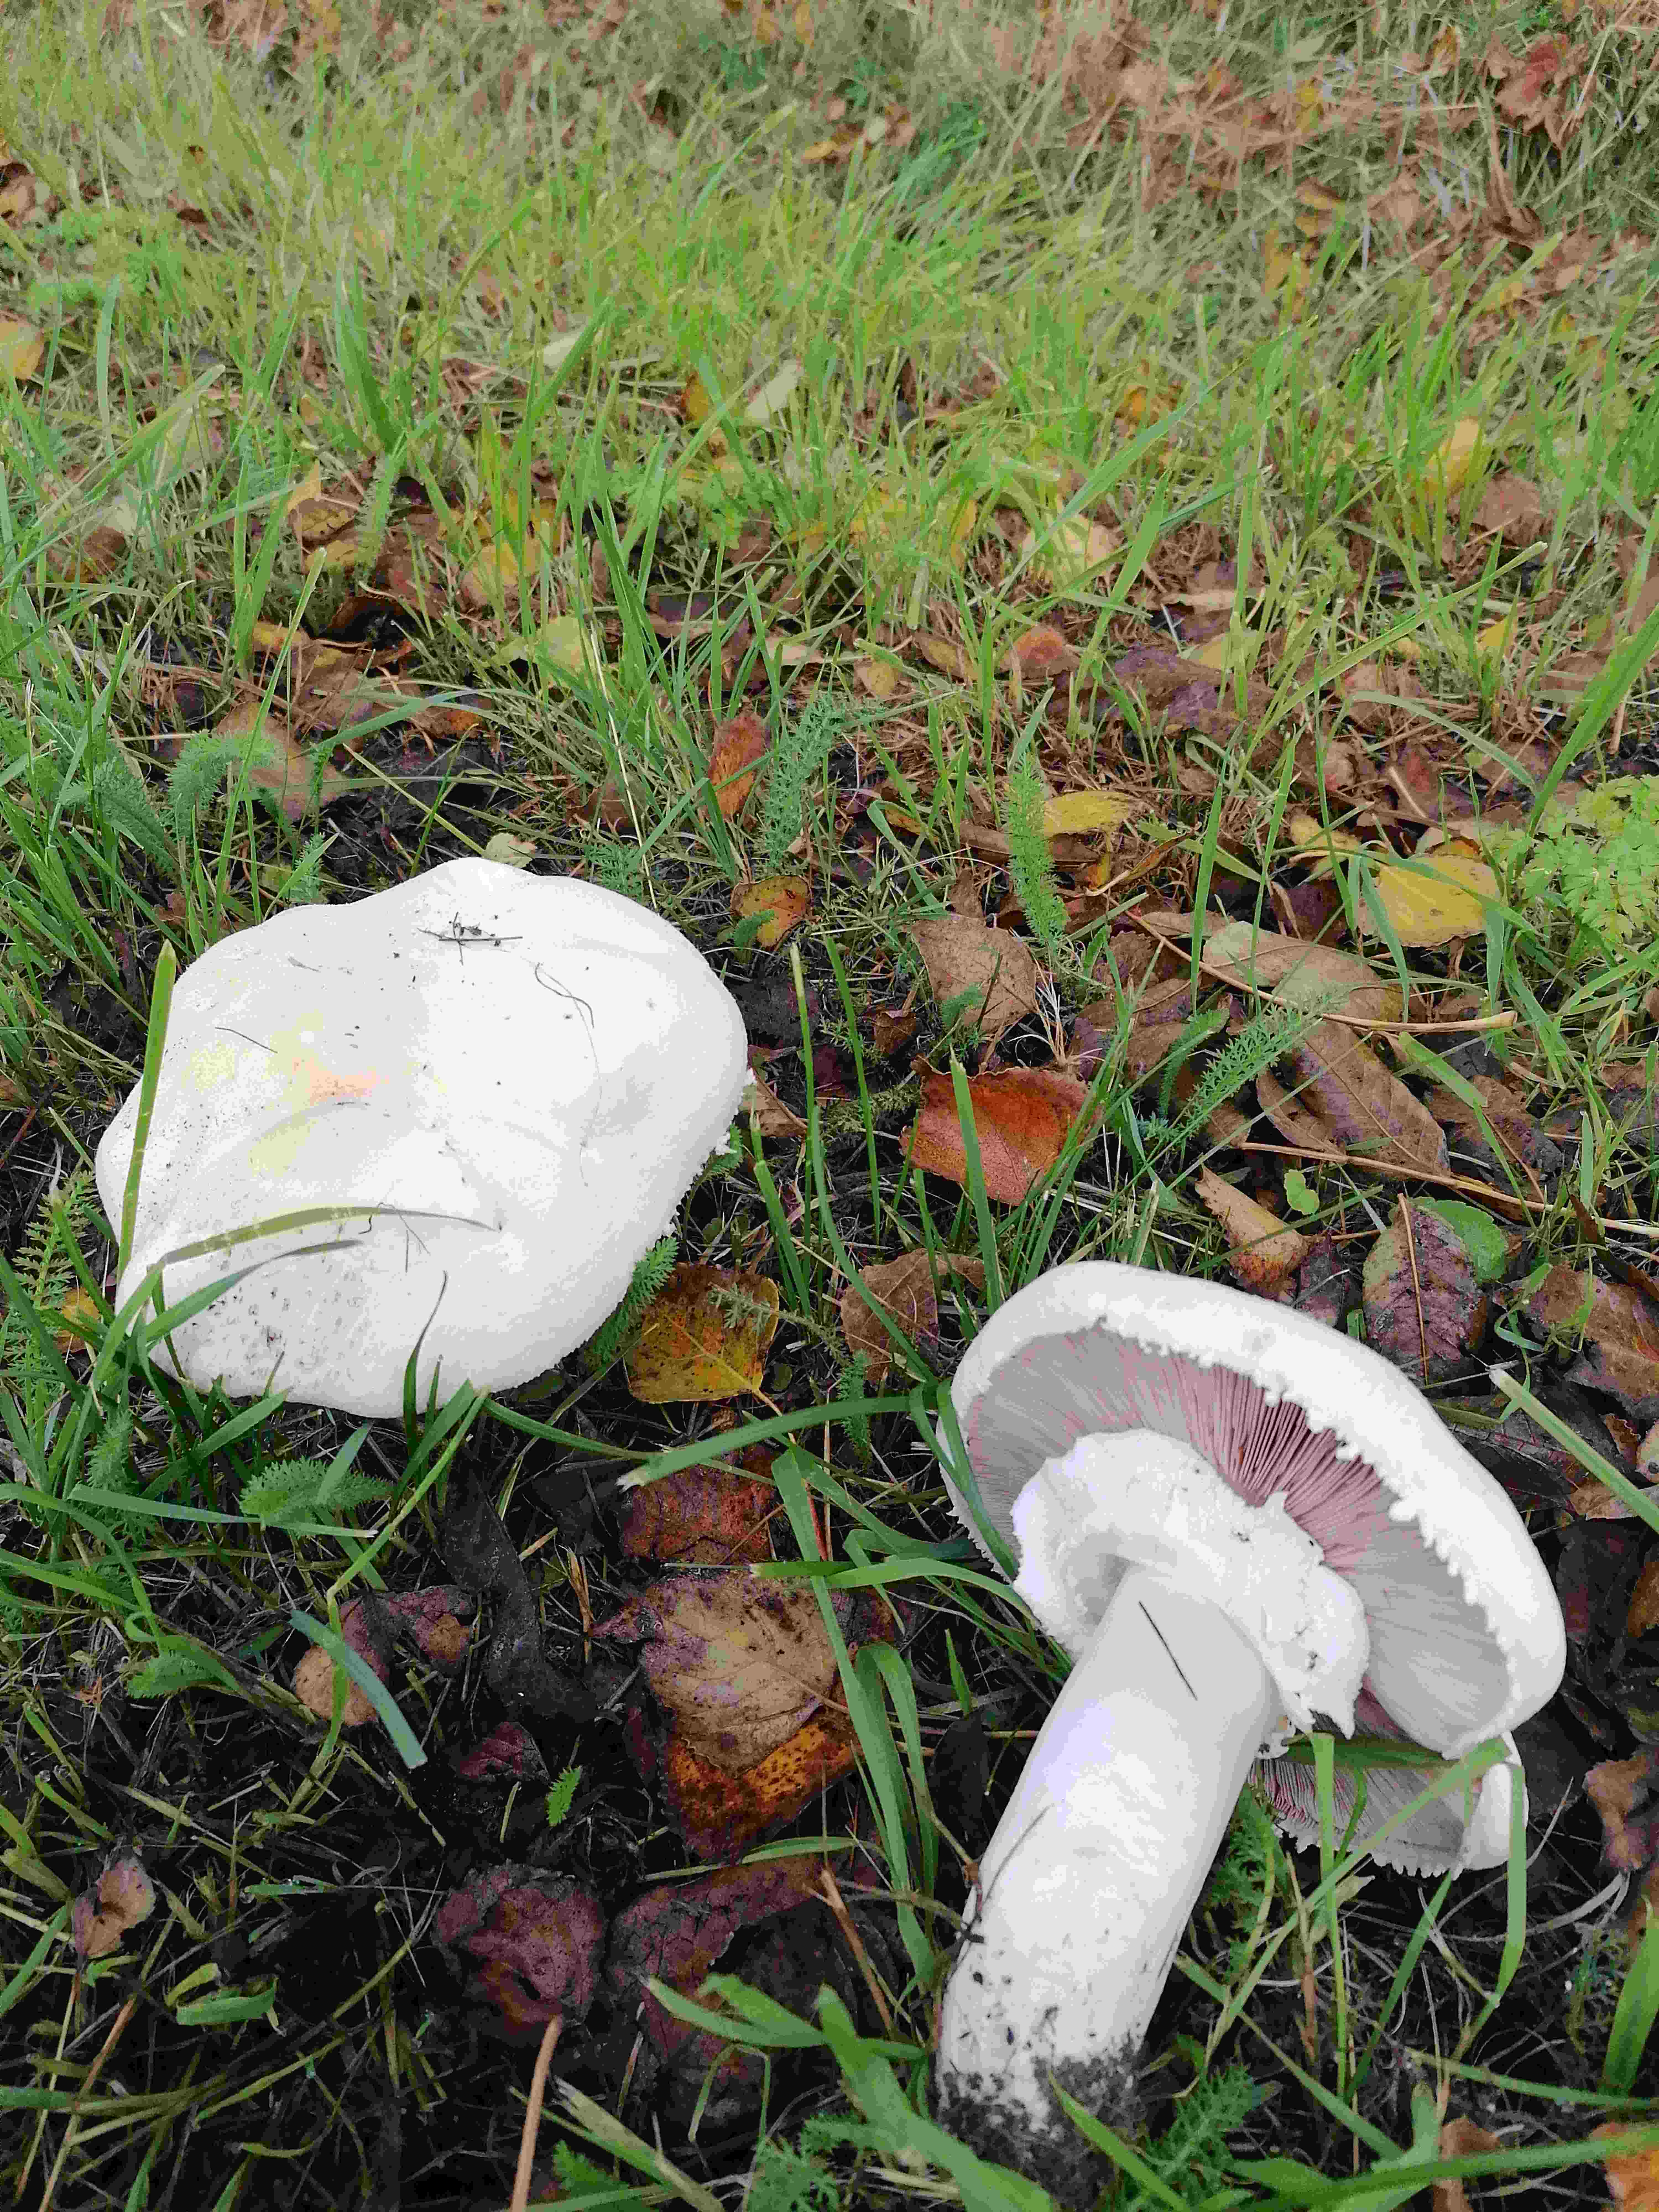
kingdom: Fungi
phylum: Basidiomycota
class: Agaricomycetes
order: Agaricales
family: Agaricaceae
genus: Agaricus
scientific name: Agaricus
